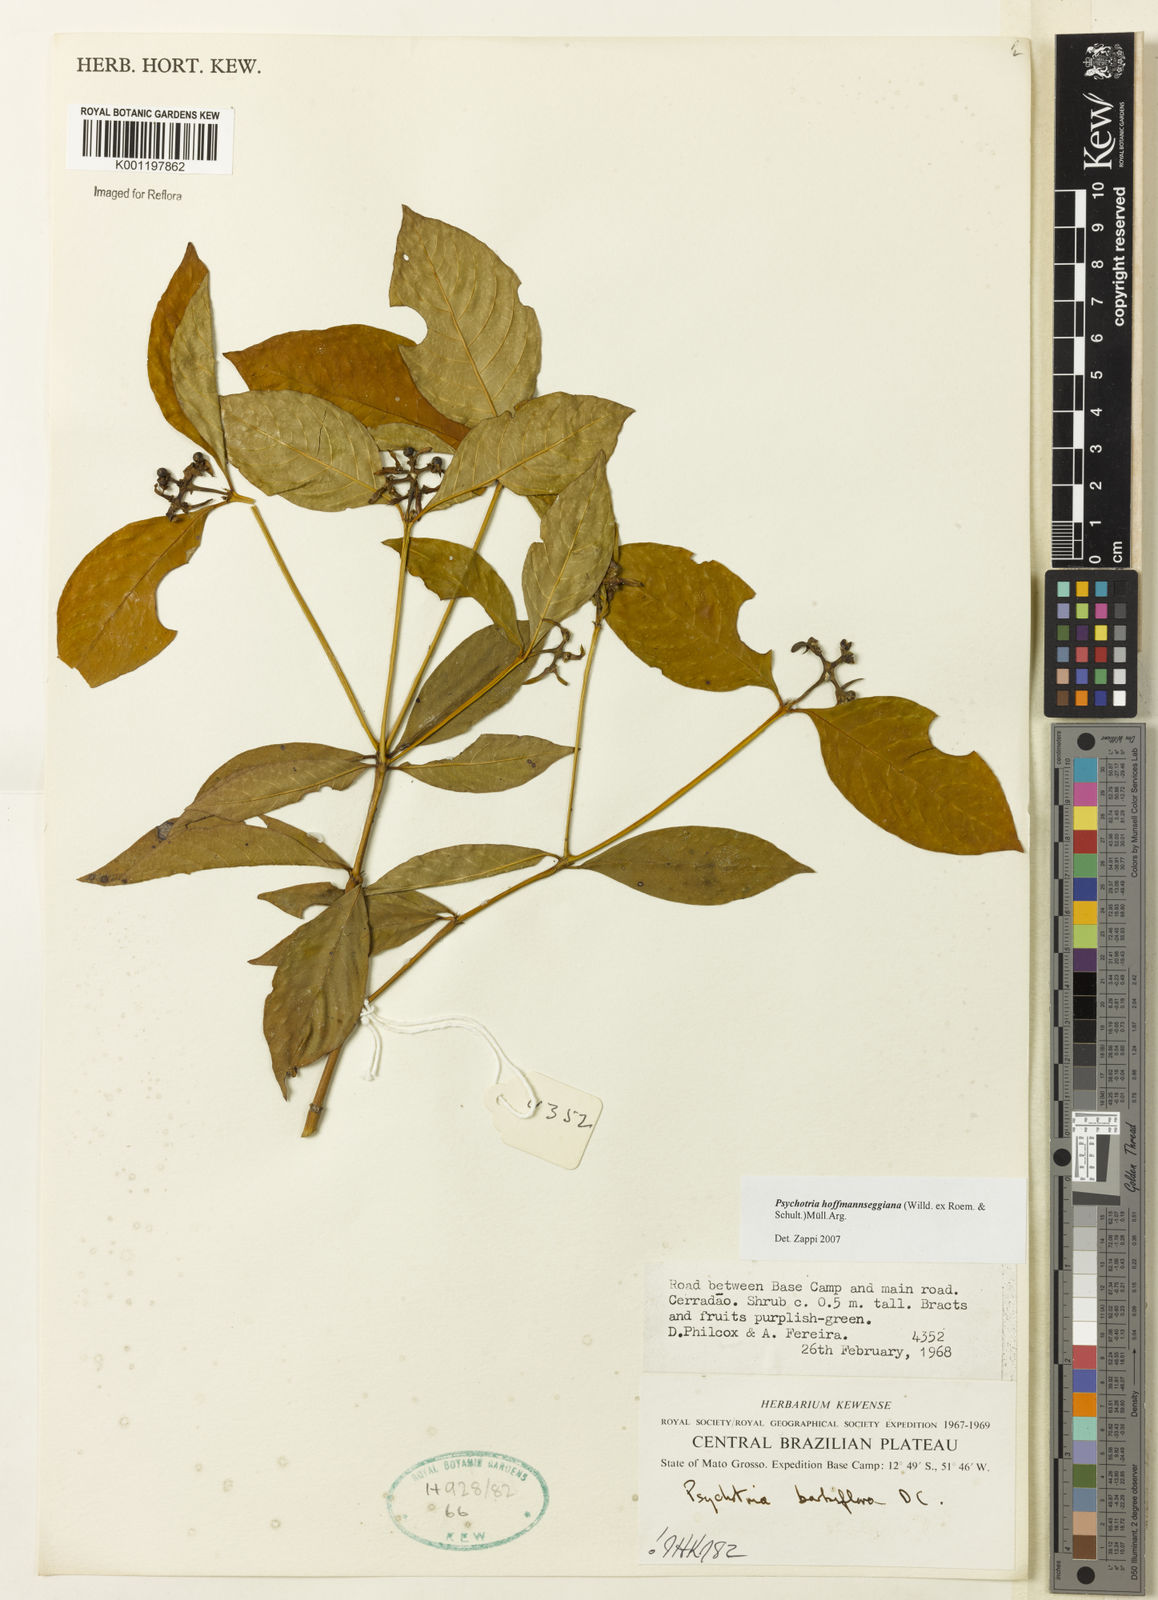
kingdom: Plantae
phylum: Tracheophyta
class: Magnoliopsida
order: Gentianales
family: Rubiaceae
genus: Psychotria
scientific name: Psychotria
